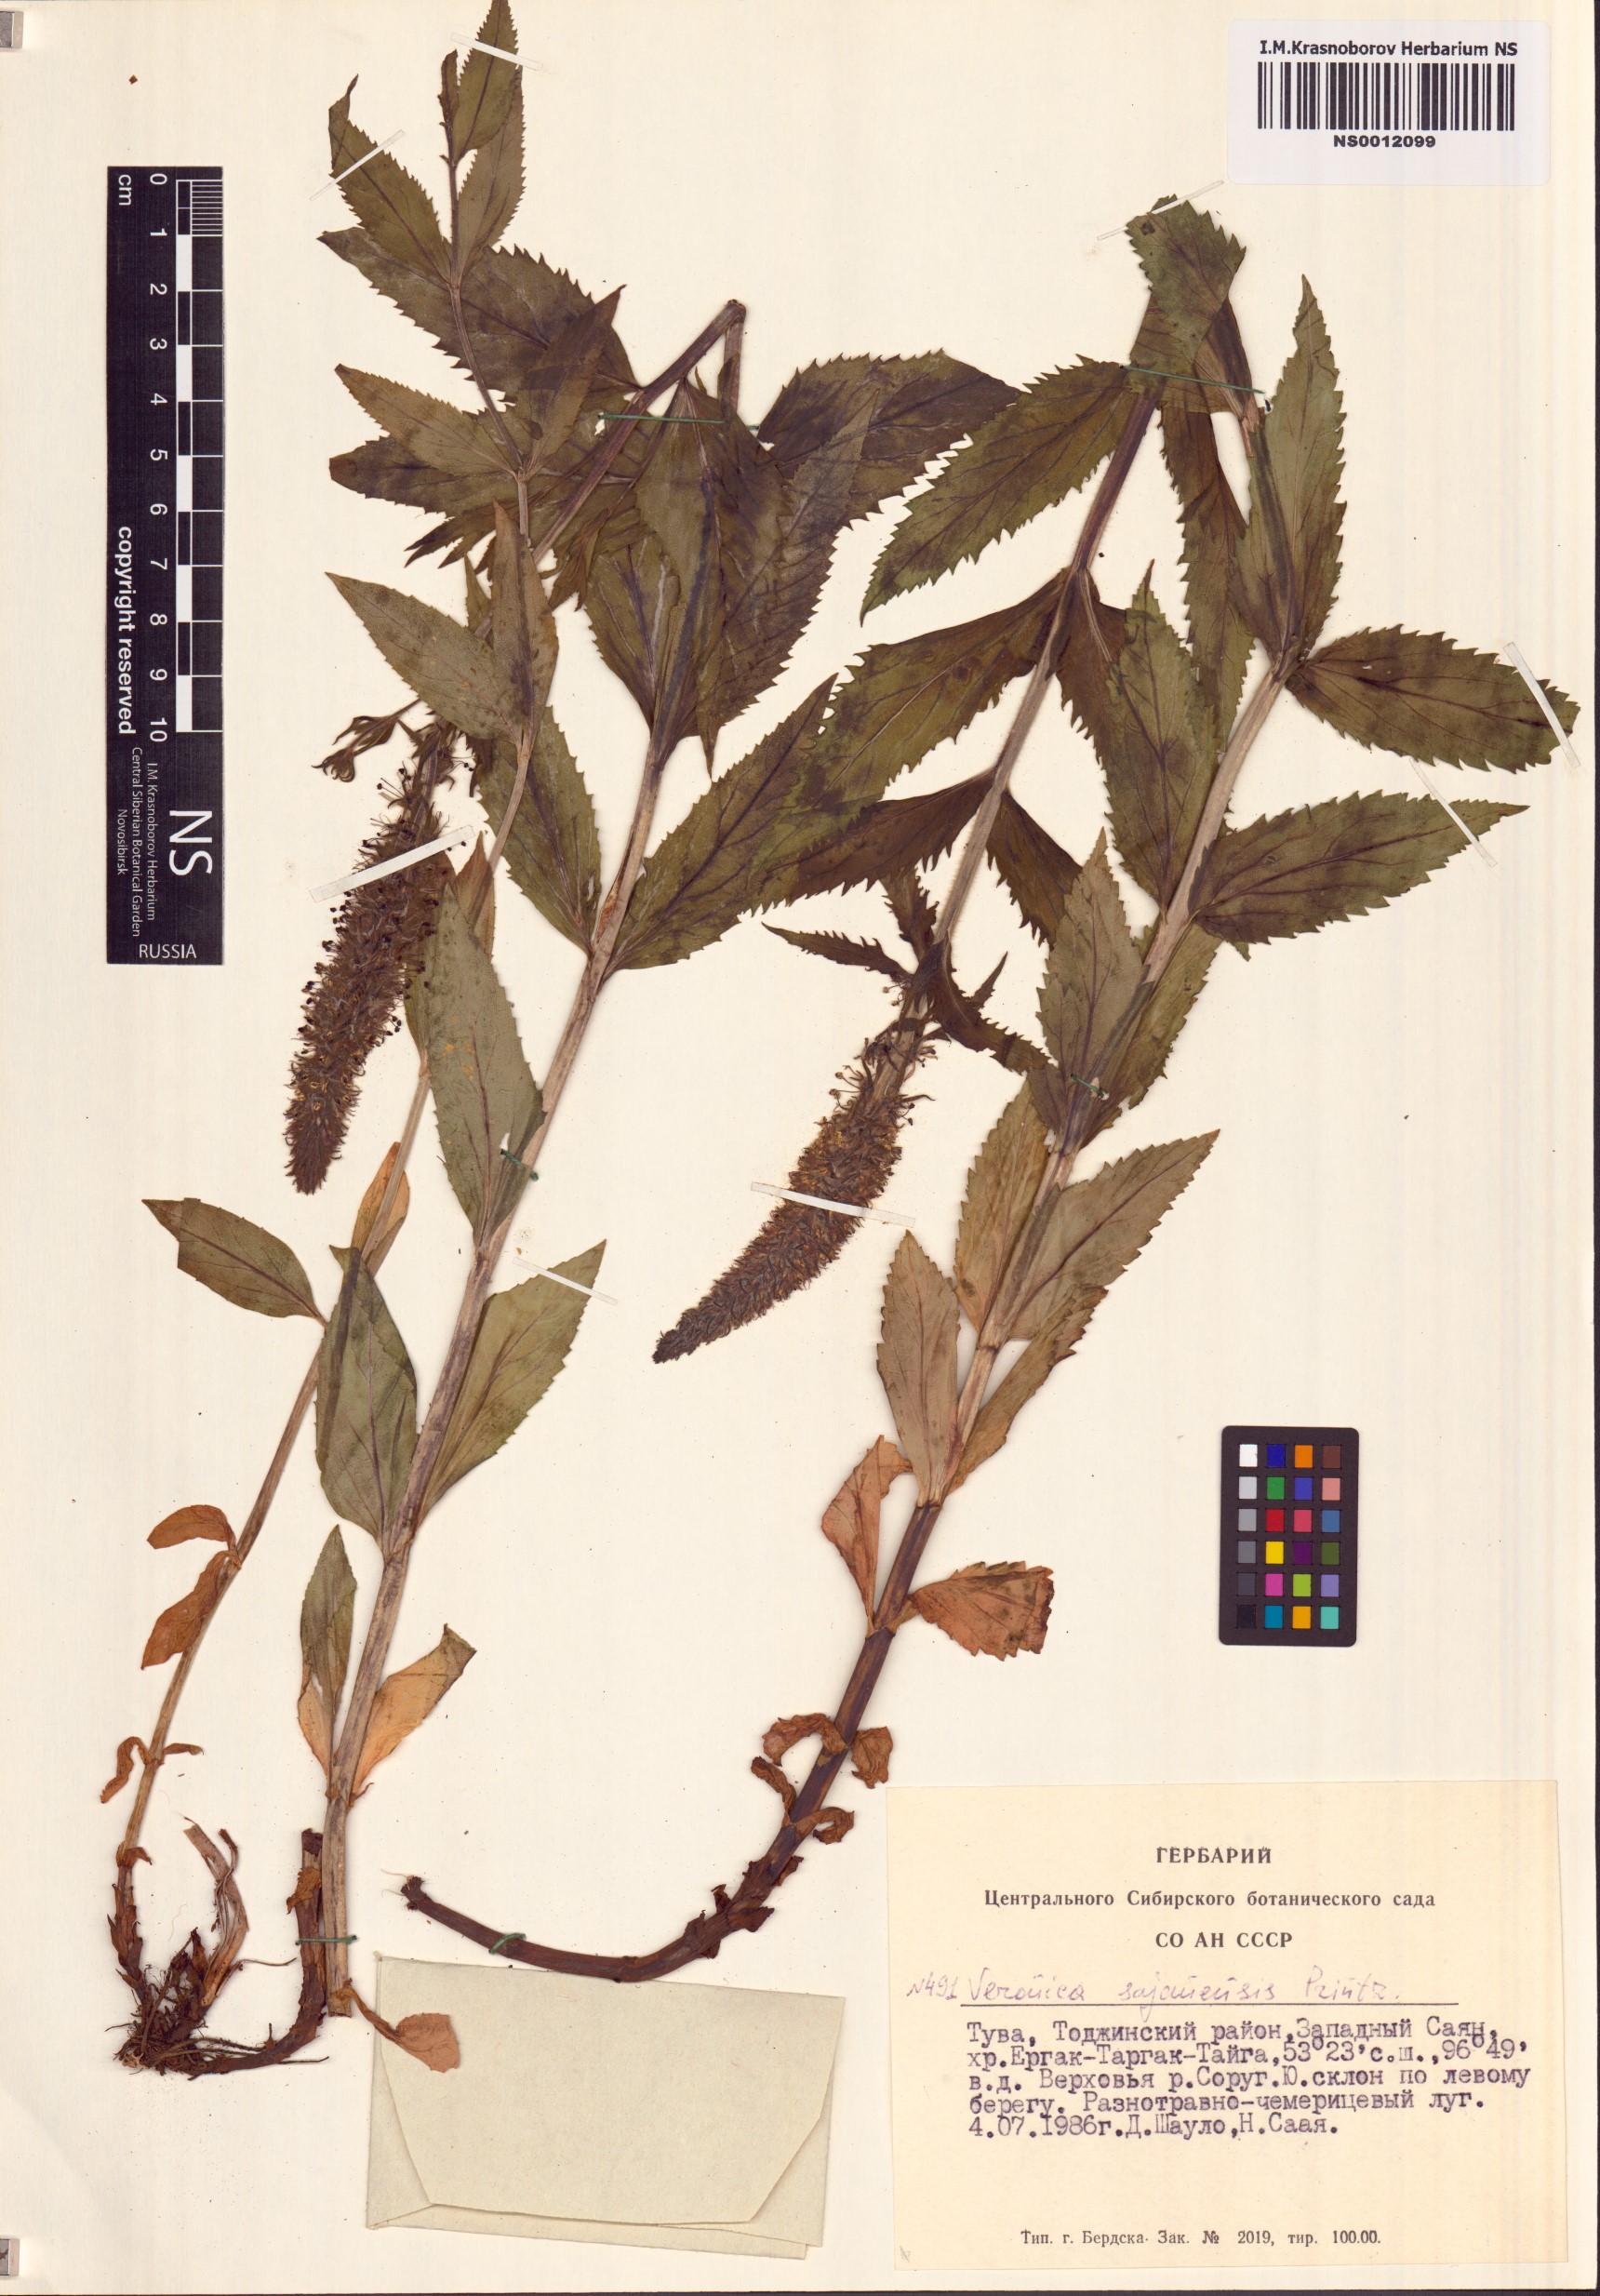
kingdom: Plantae
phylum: Tracheophyta
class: Magnoliopsida
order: Lamiales
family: Plantaginaceae
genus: Veronica
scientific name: Veronica sajanensis
